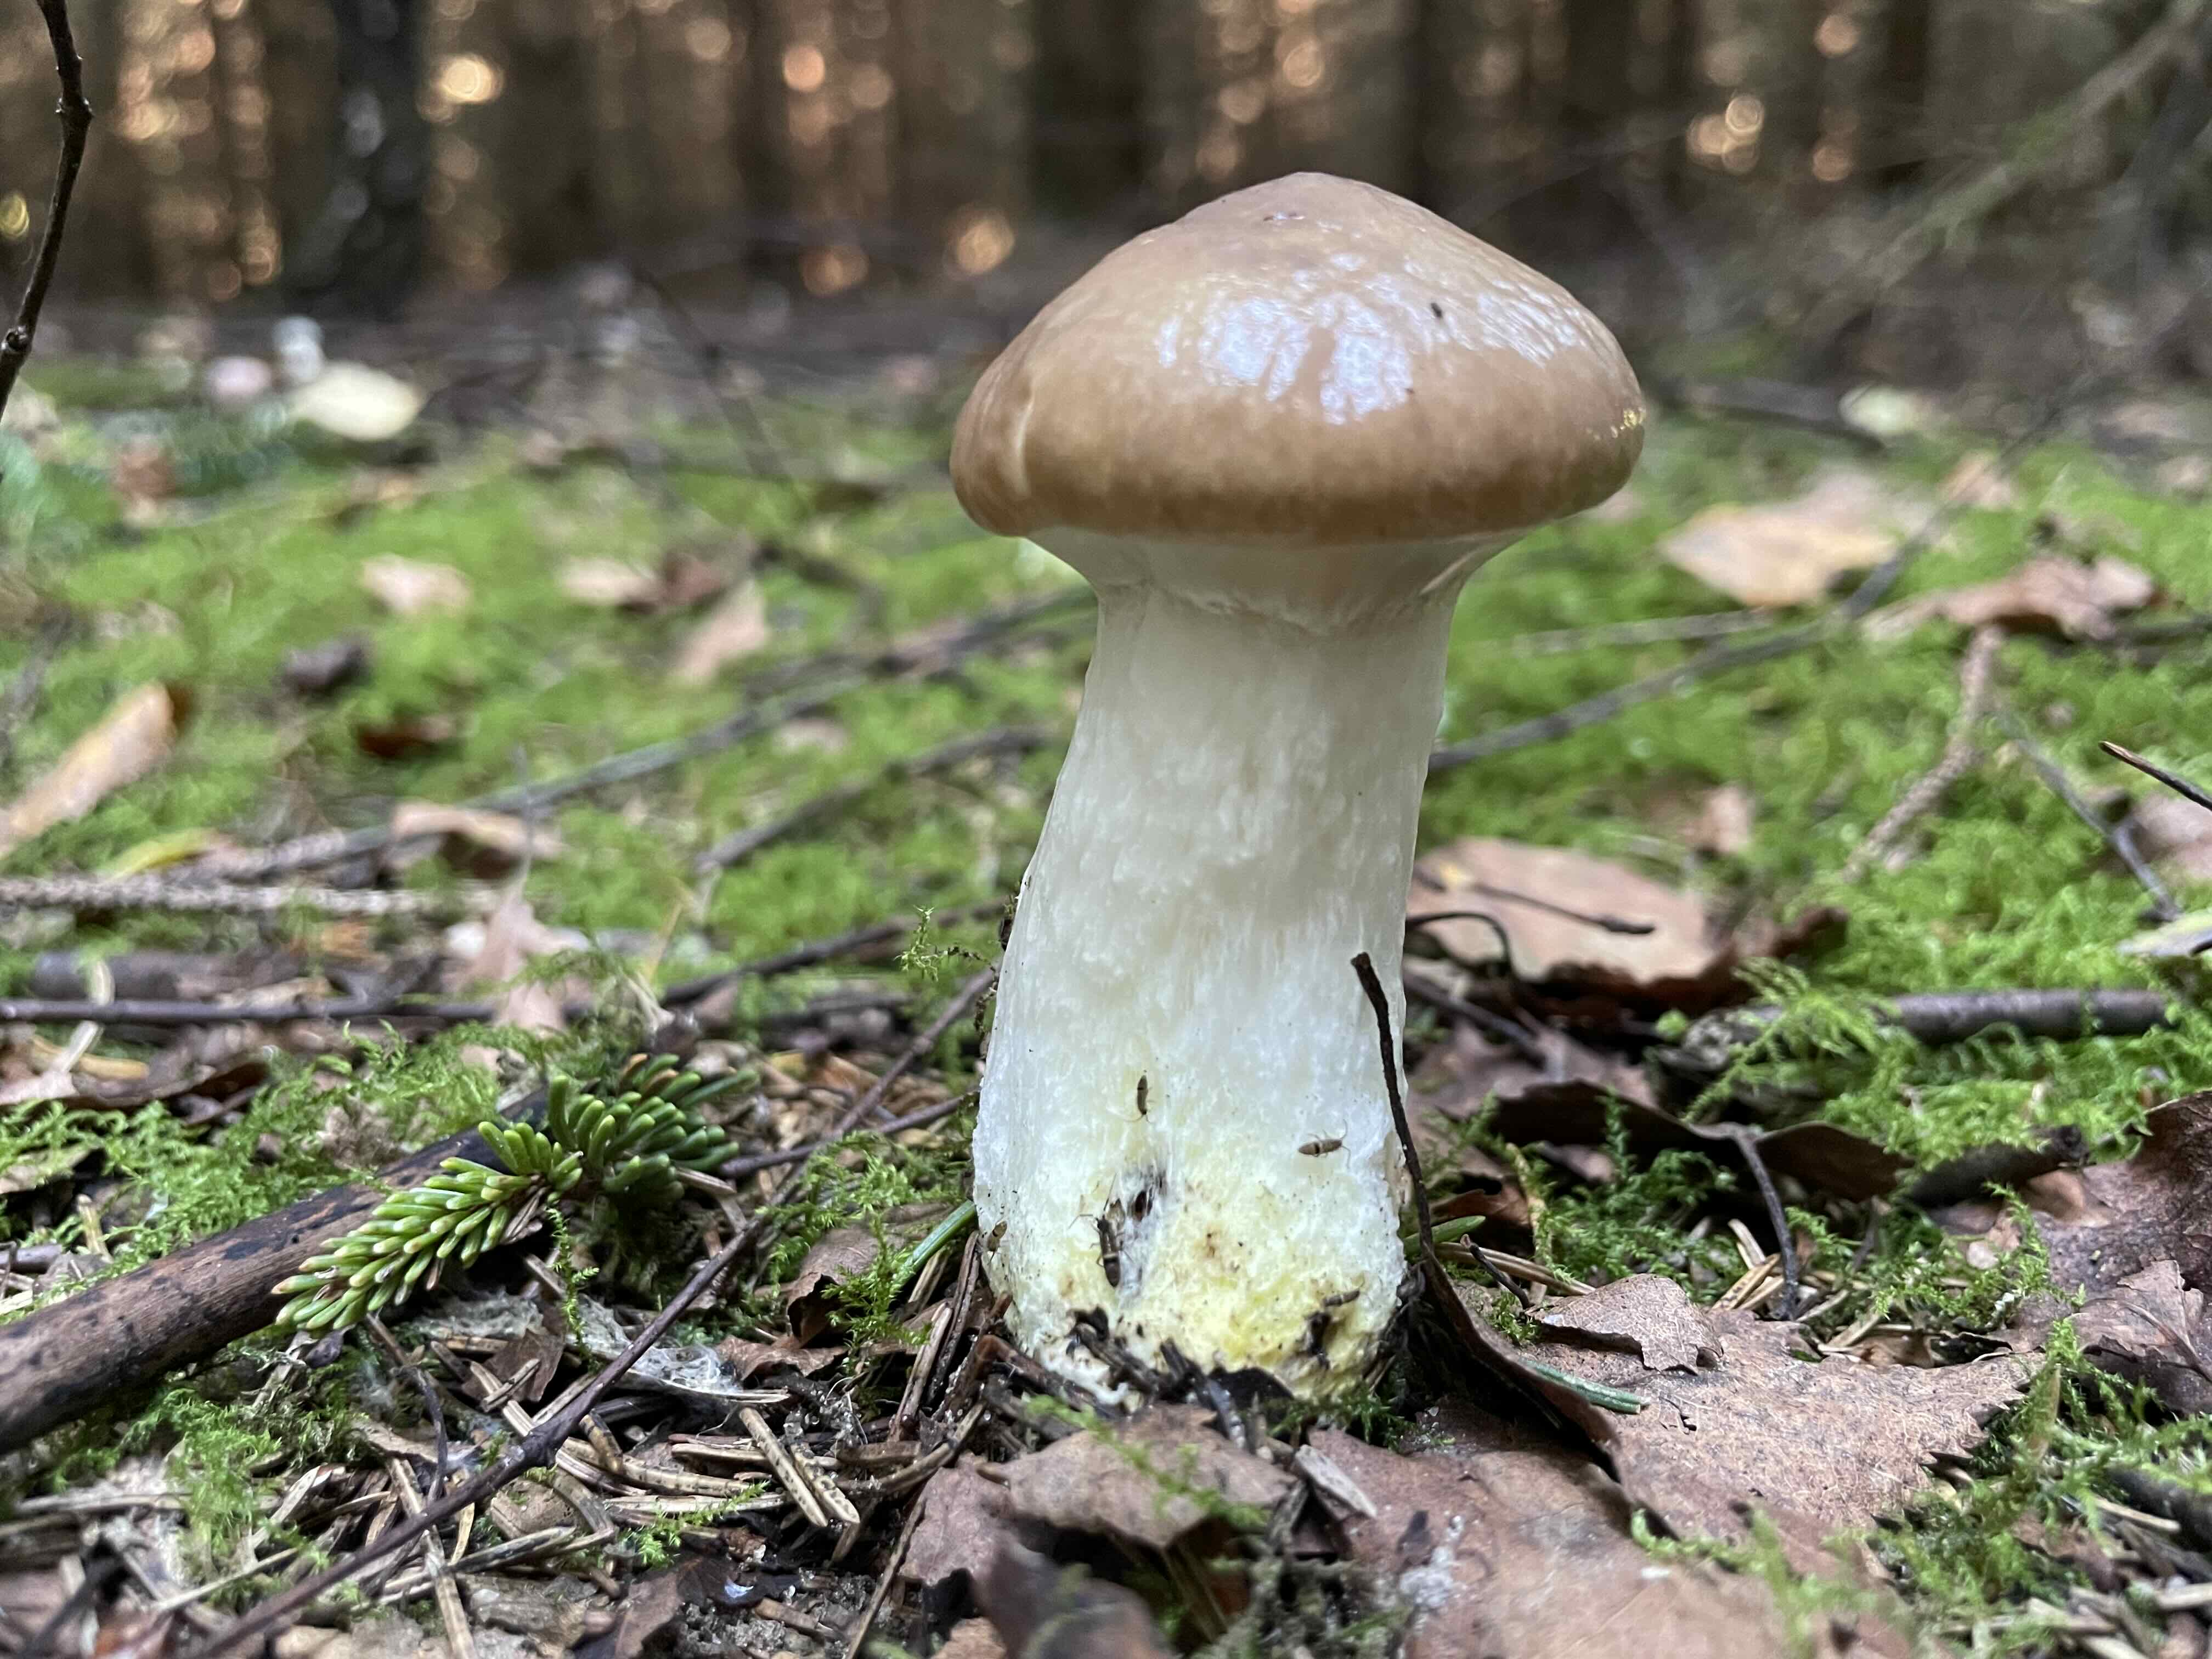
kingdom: Fungi
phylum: Basidiomycota
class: Agaricomycetes
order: Boletales
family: Gomphidiaceae
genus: Gomphidius
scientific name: Gomphidius glutinosus
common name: grå slimslør
